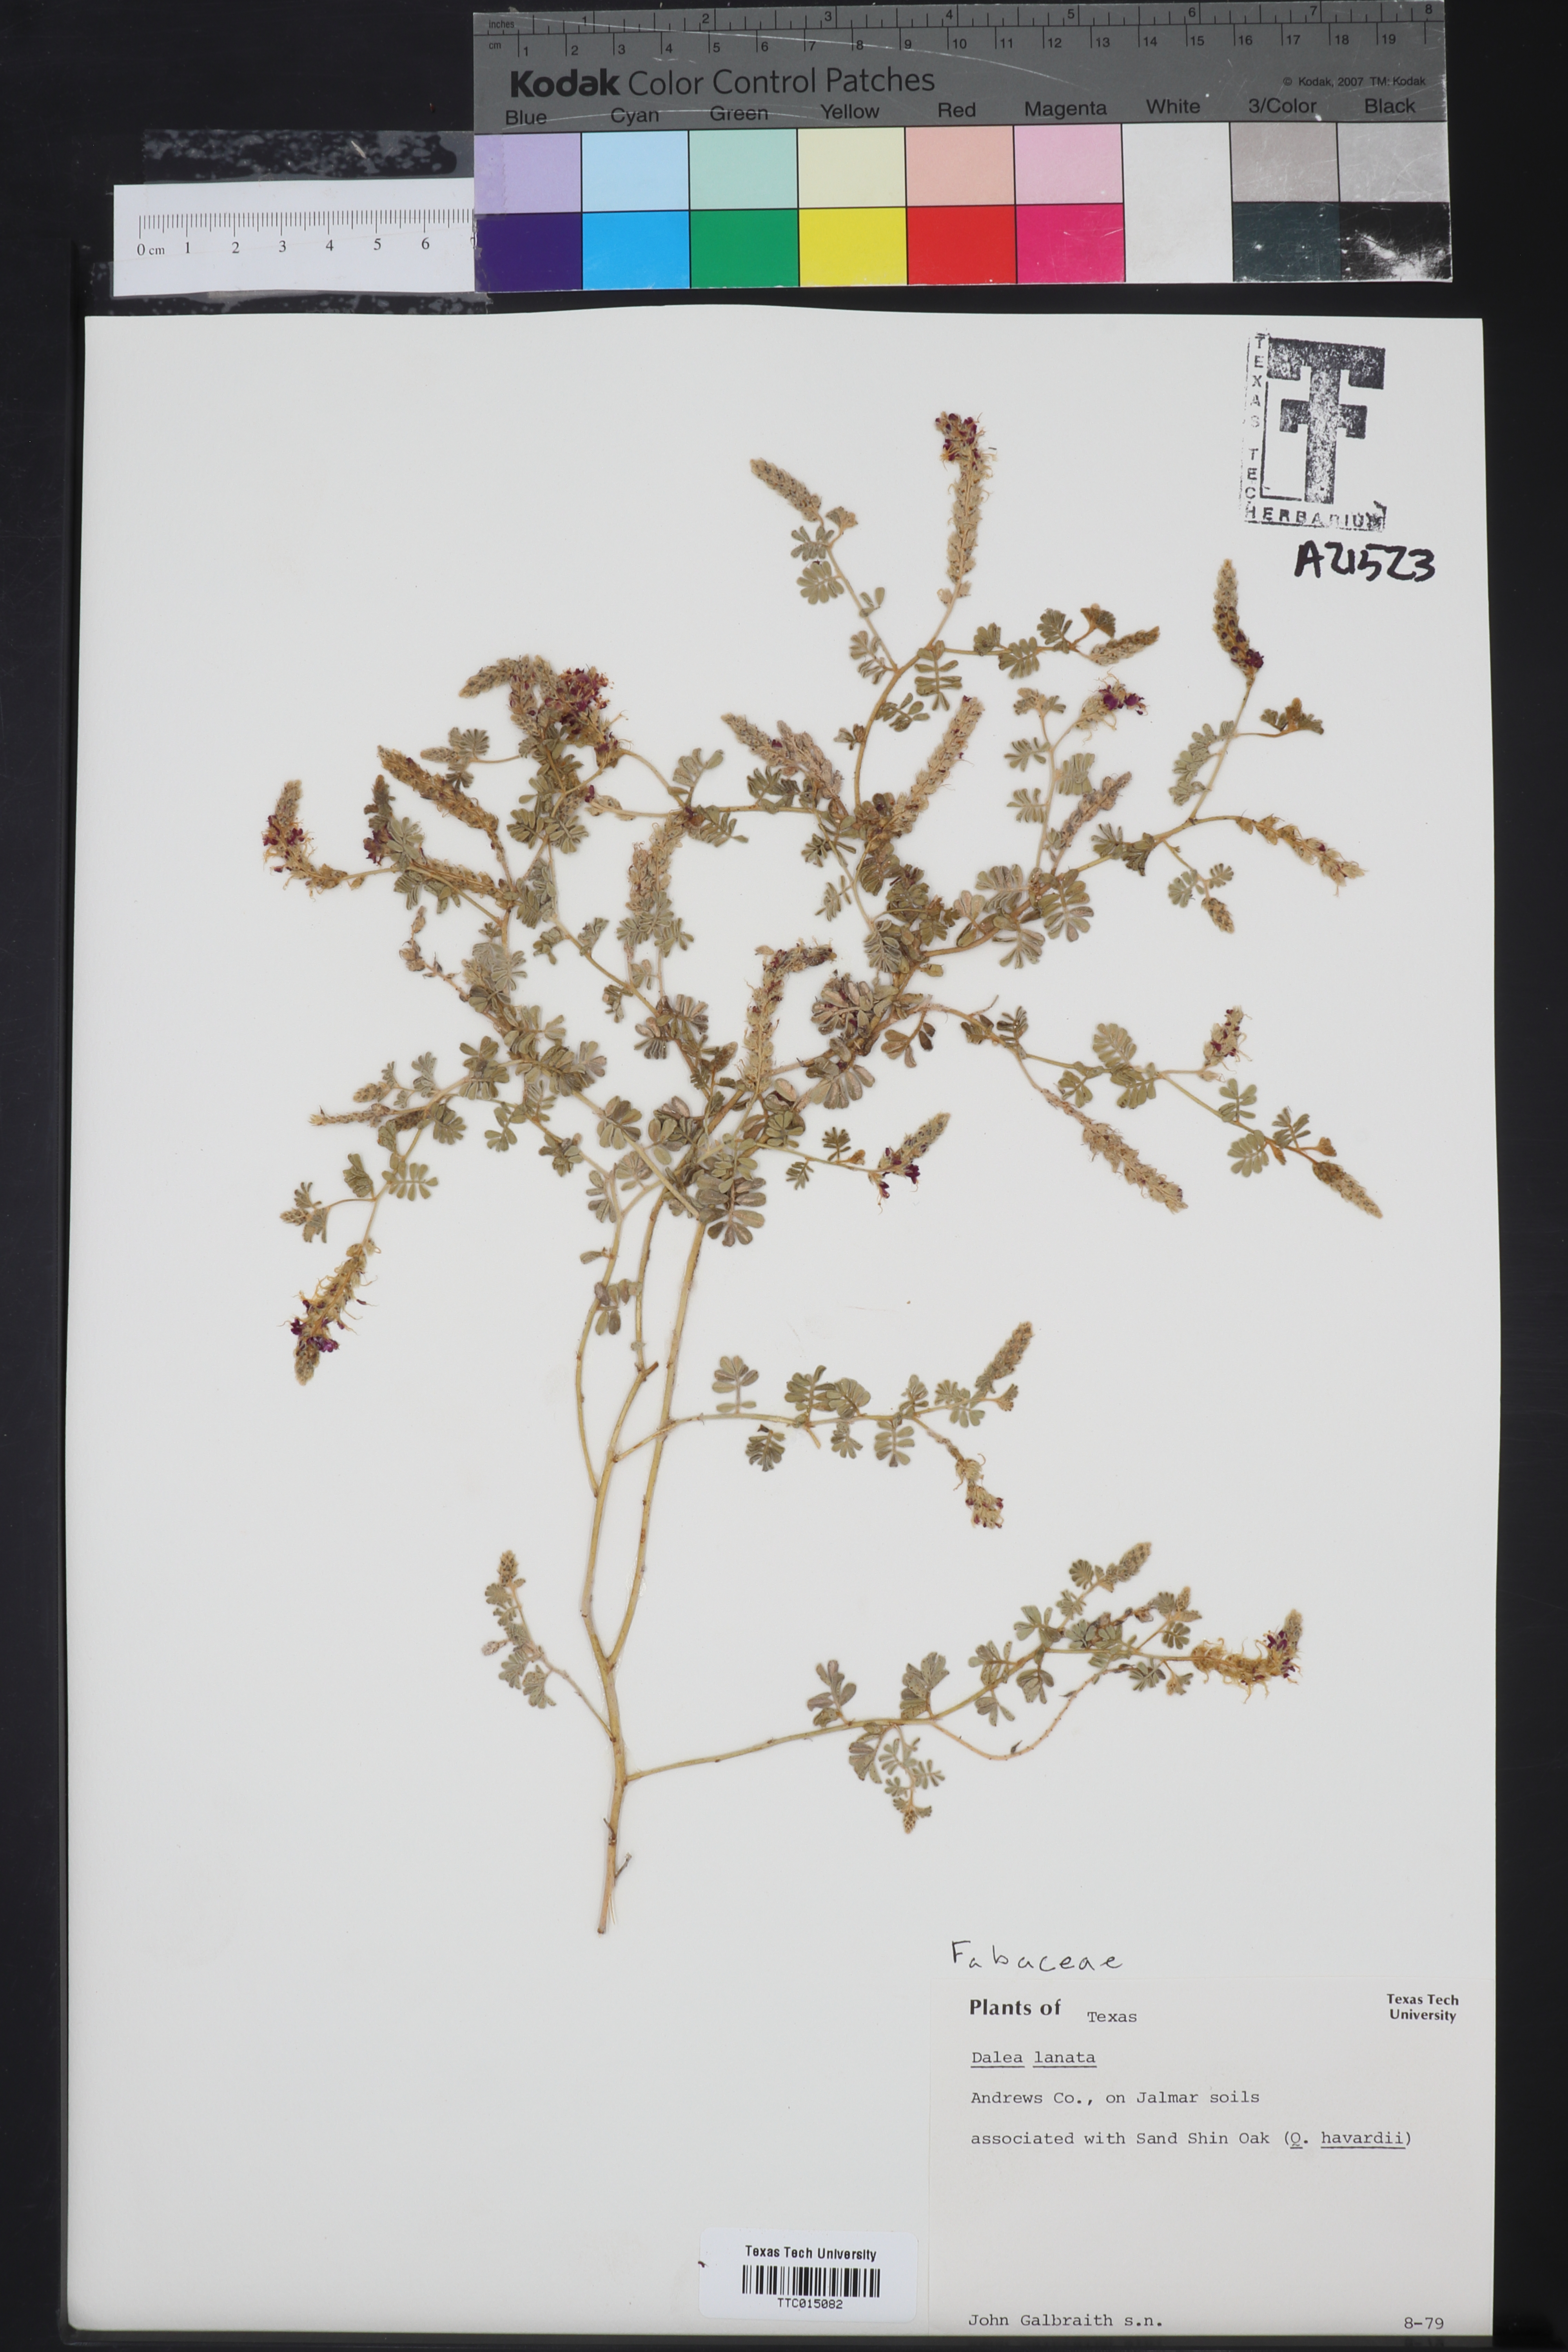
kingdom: Plantae
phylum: Tracheophyta
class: Magnoliopsida
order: Fabales
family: Fabaceae
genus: Dalea
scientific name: Dalea lanata
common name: Woolly dalea
